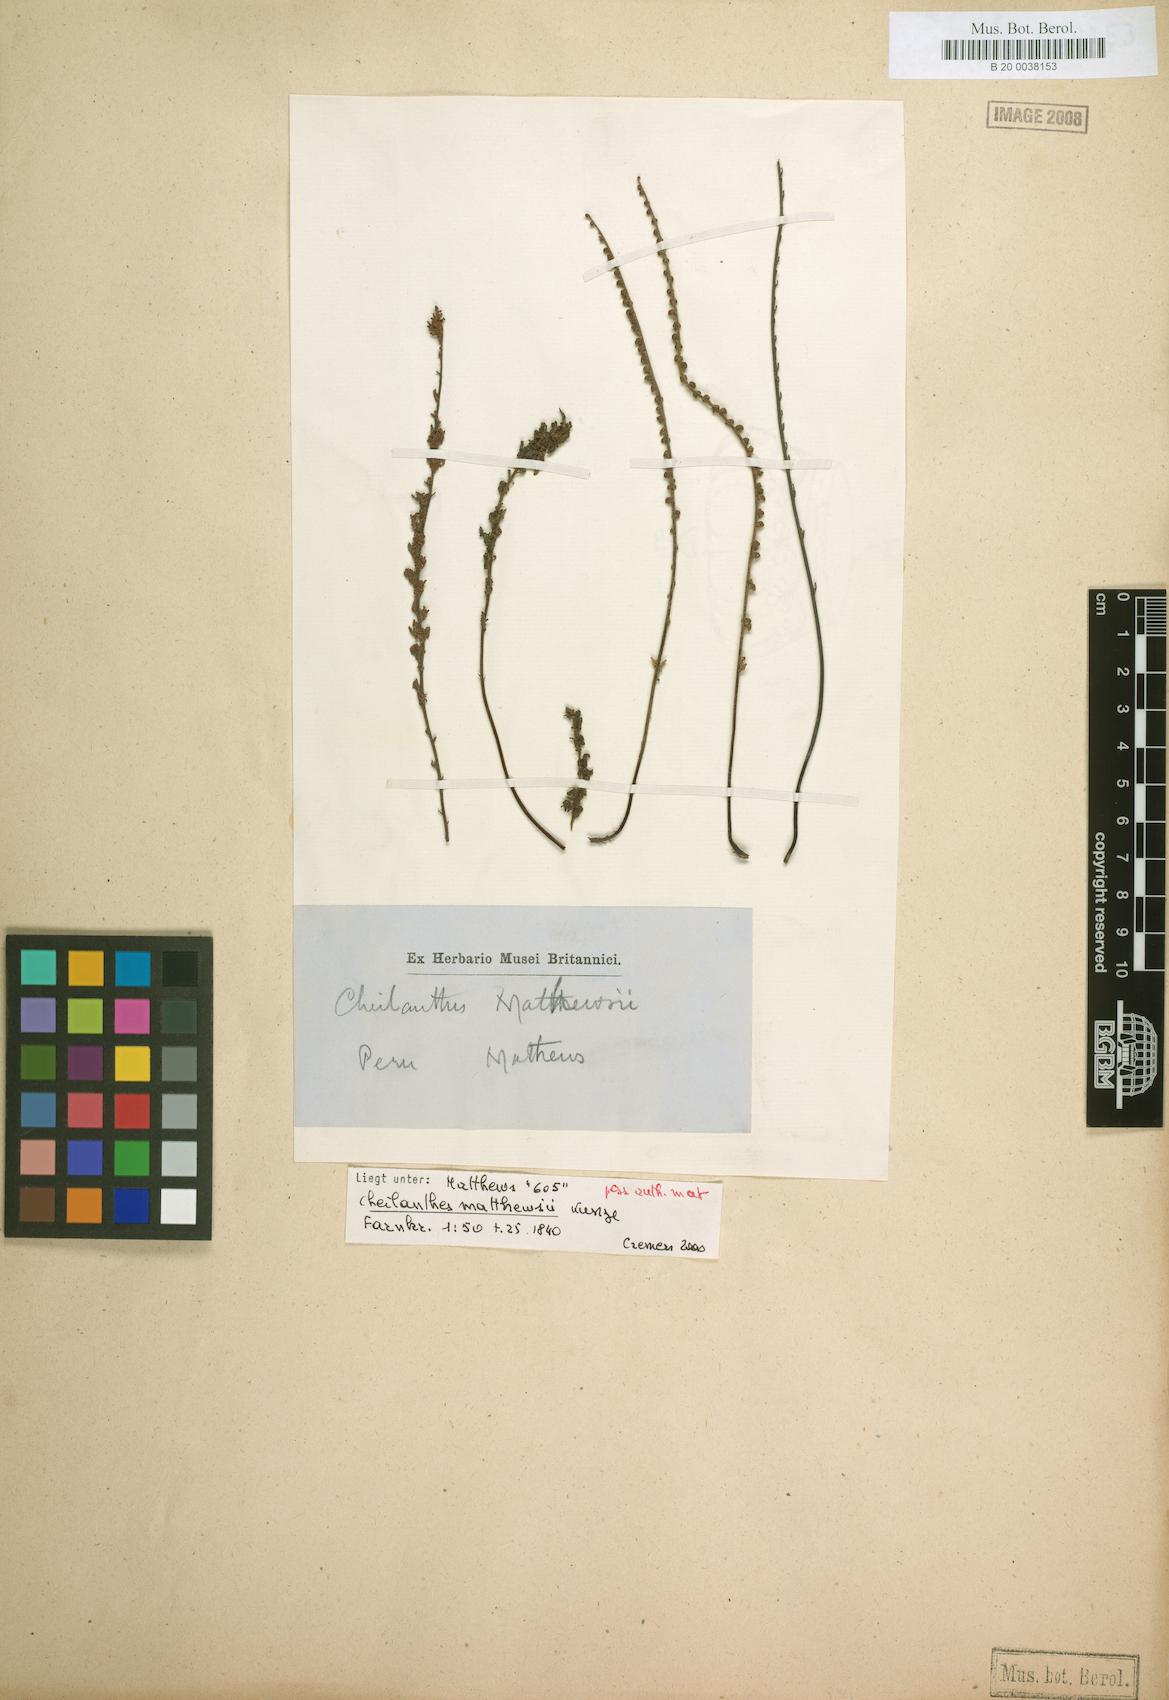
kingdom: Plantae
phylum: Tracheophyta
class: Polypodiopsida
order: Polypodiales
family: Pteridaceae
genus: Cheilanthes
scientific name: Cheilanthes pruinata
